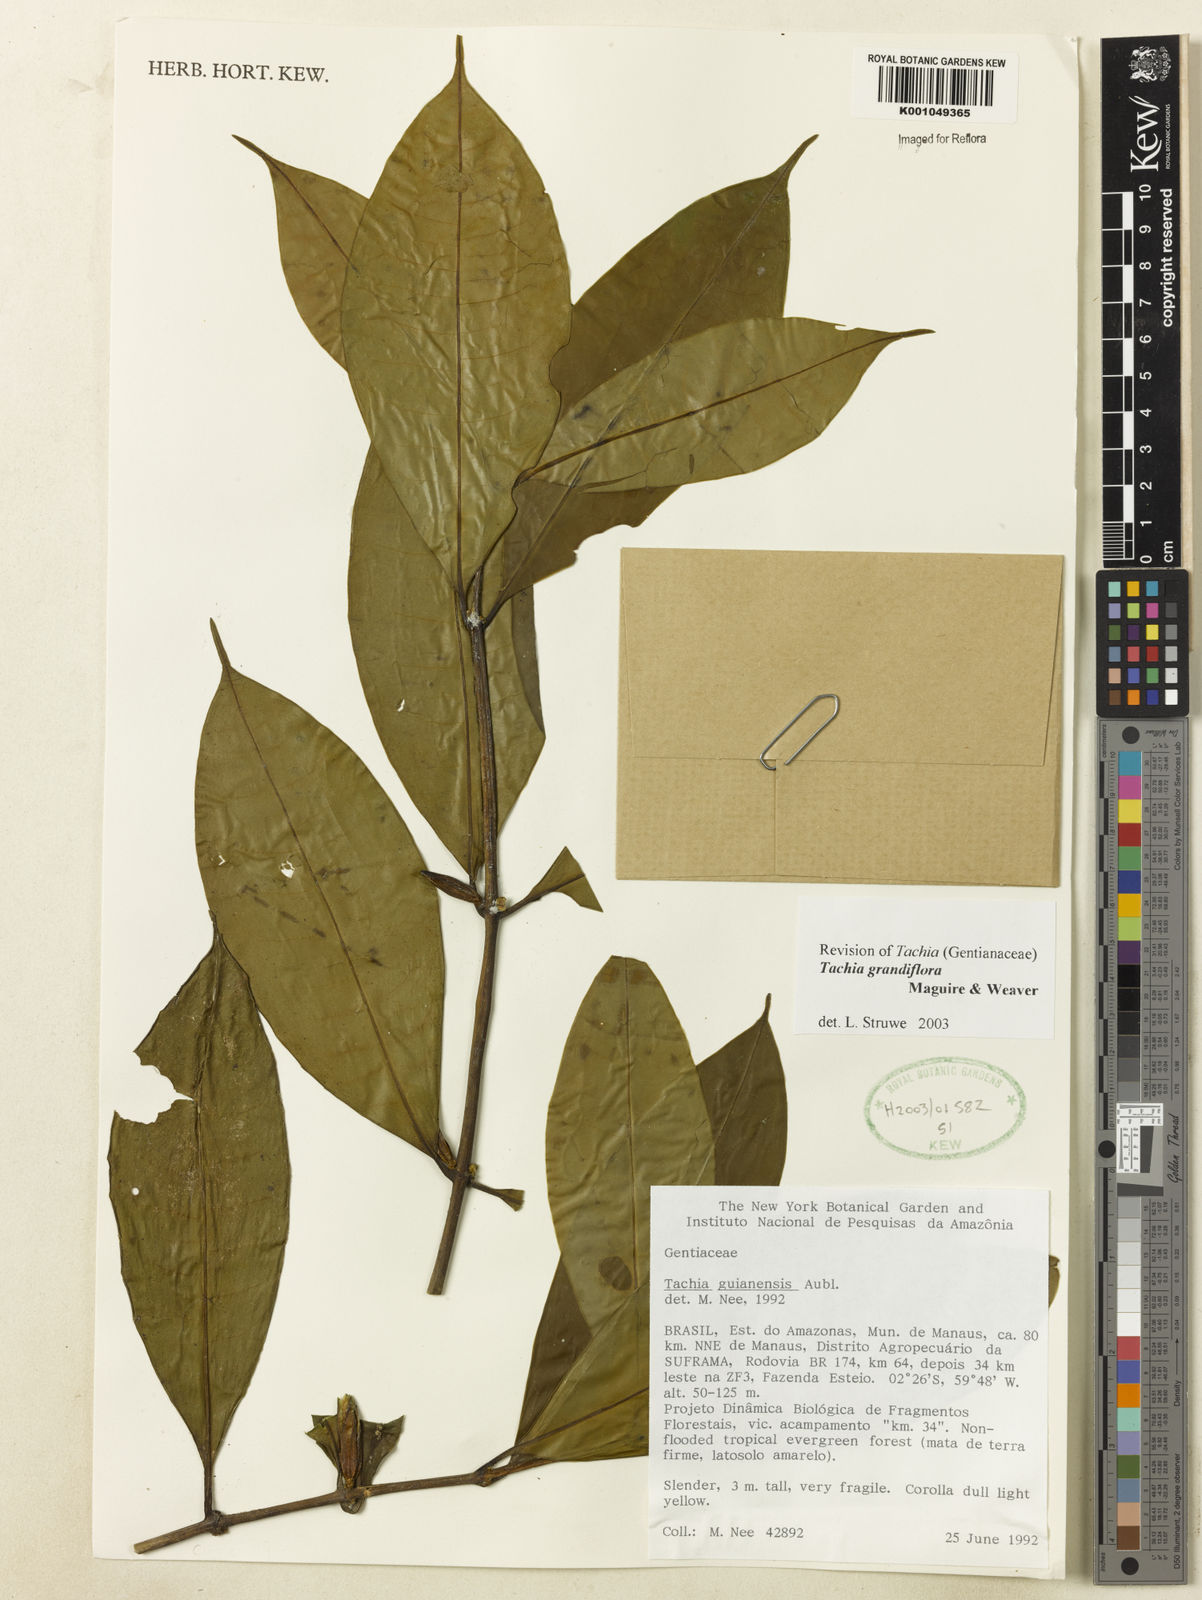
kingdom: Plantae
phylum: Tracheophyta
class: Magnoliopsida
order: Gentianales
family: Gentianaceae
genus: Tachia
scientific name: Tachia grandiflora
